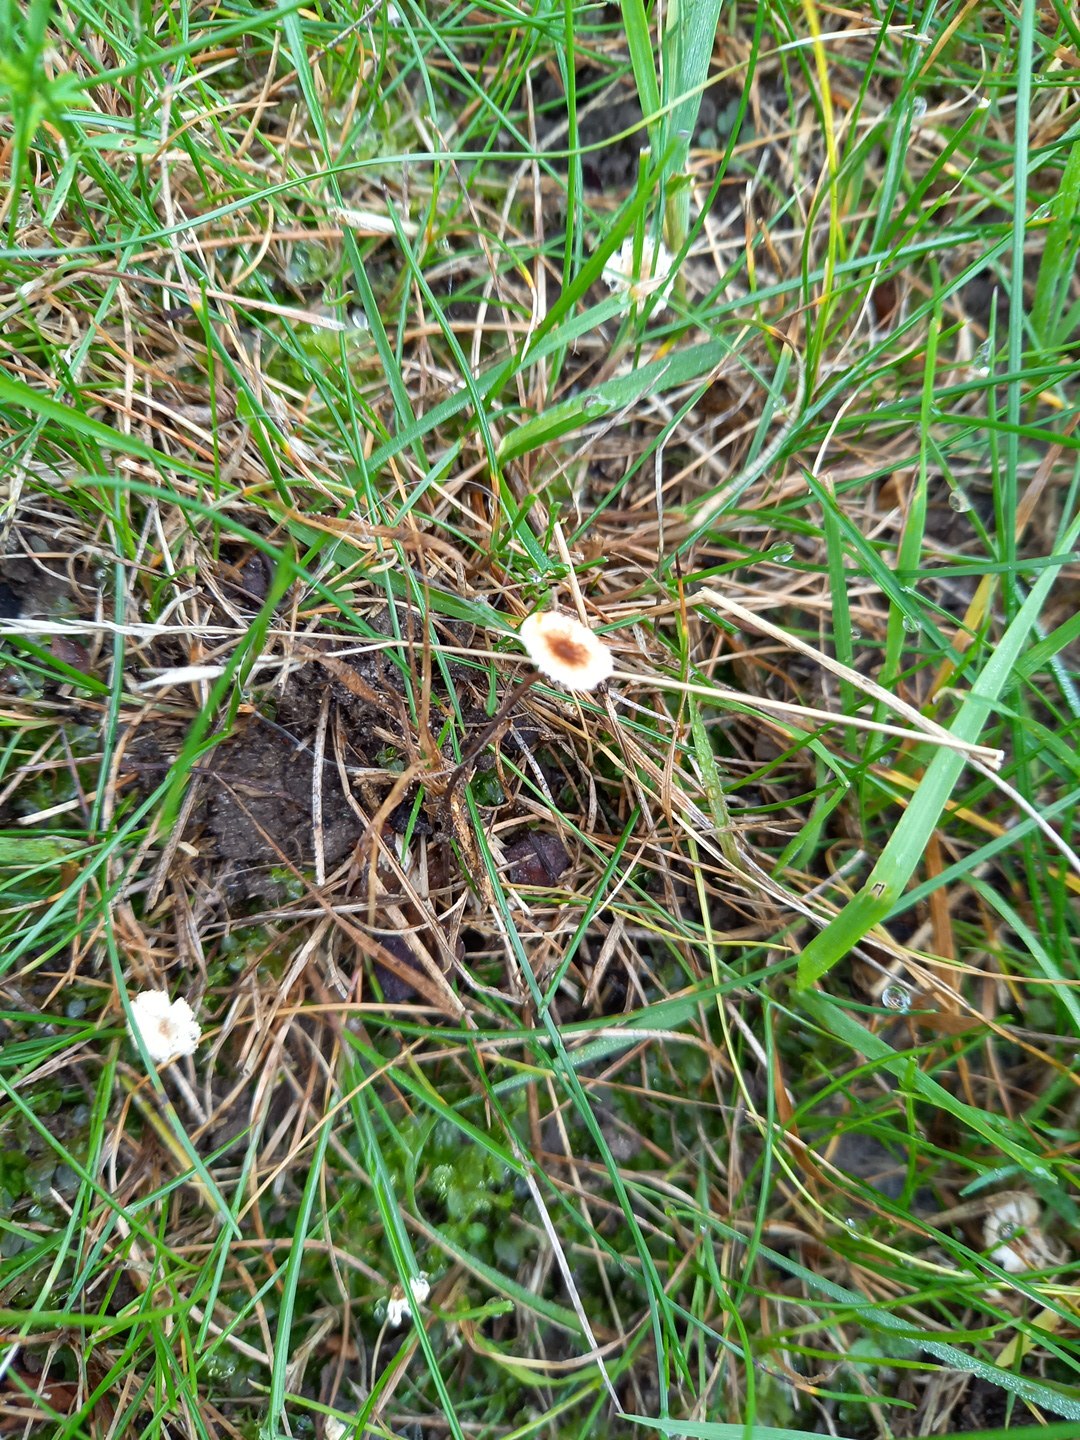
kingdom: Fungi
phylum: Basidiomycota
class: Agaricomycetes
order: Agaricales
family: Marasmiaceae
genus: Crinipellis
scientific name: Crinipellis scabella
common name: børstefod
